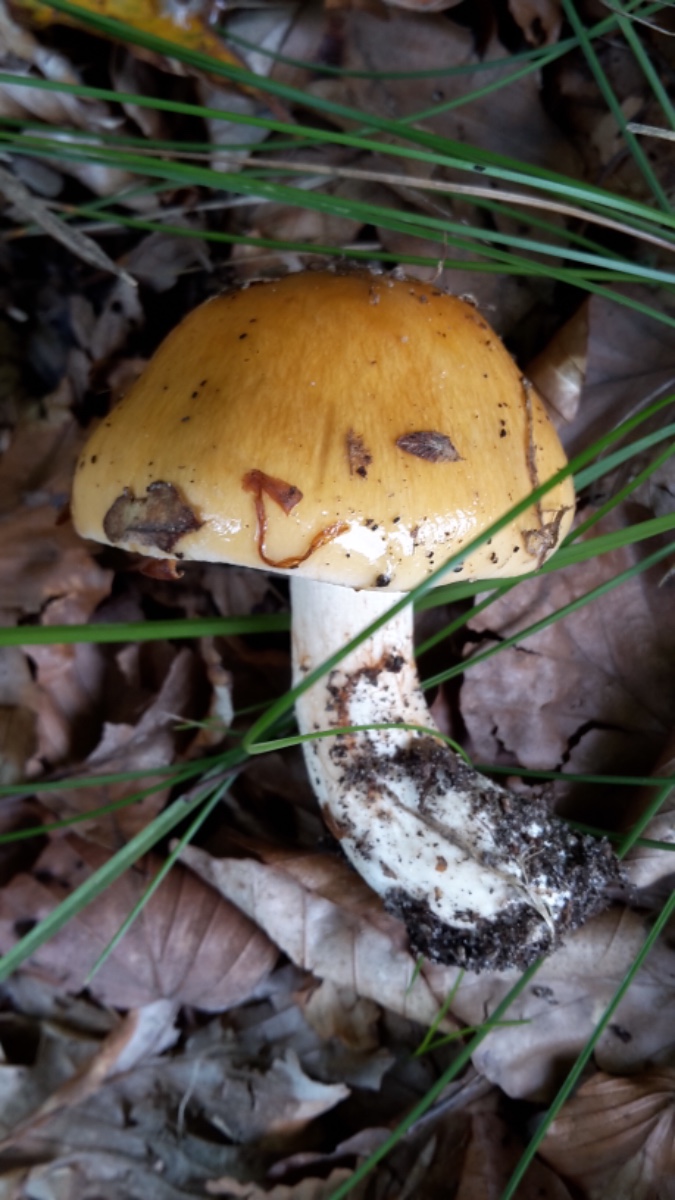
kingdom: Fungi
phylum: Basidiomycota
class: Agaricomycetes
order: Agaricales
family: Cortinariaceae
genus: Thaxterogaster
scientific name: Thaxterogaster emollitus
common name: besk slørhat
